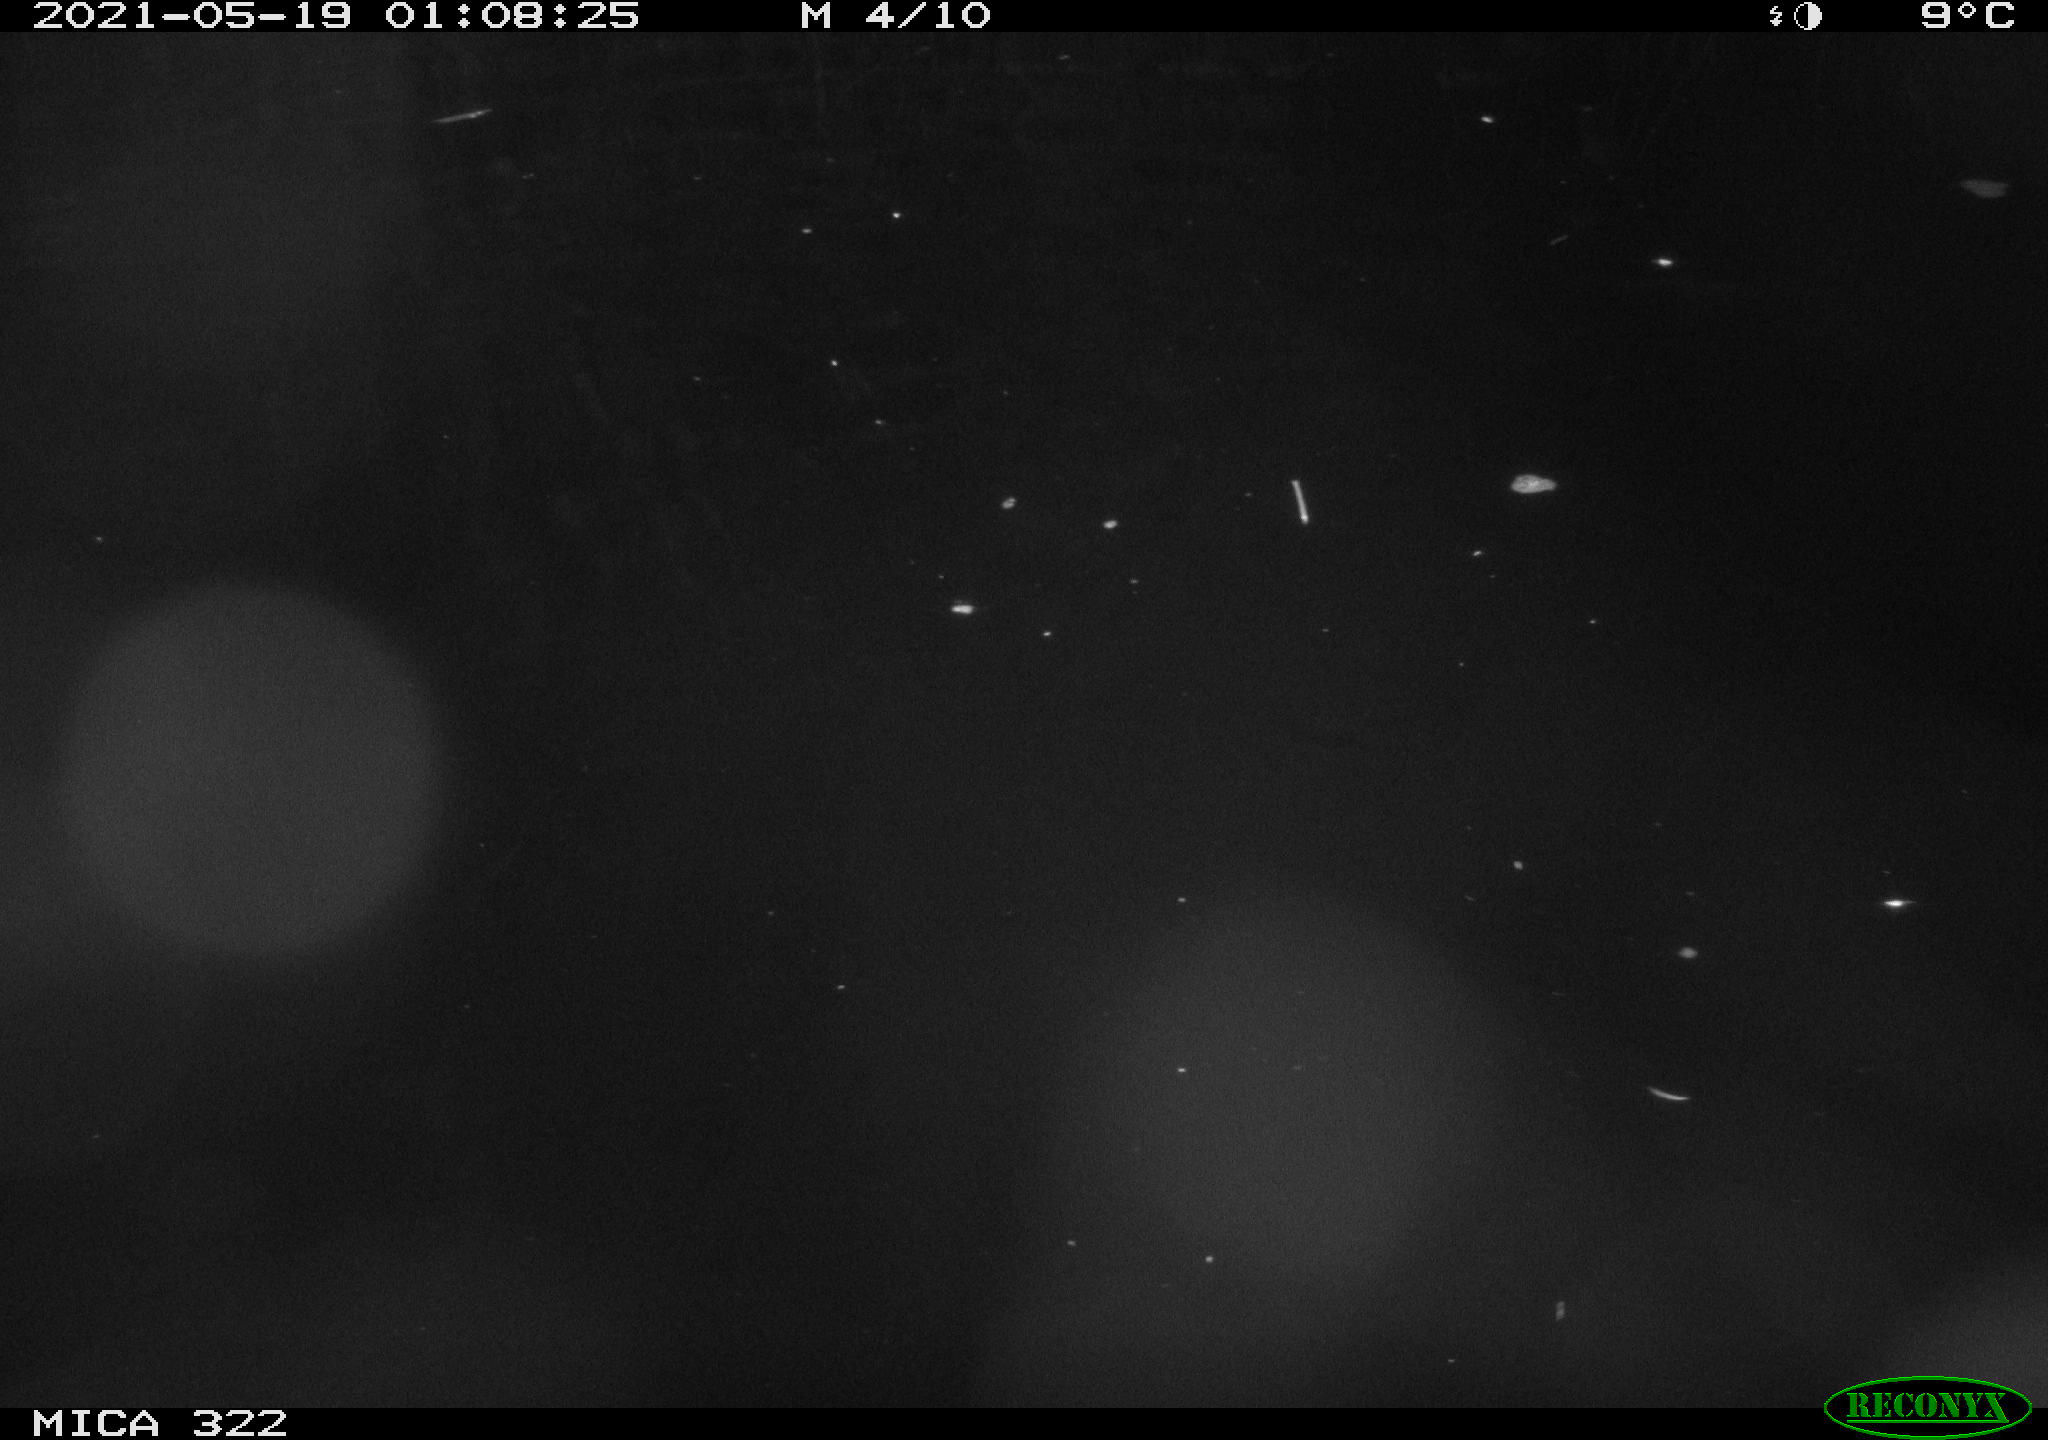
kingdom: Animalia
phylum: Chordata
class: Aves
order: Anseriformes
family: Anatidae
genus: Anas
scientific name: Anas platyrhynchos
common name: Mallard
